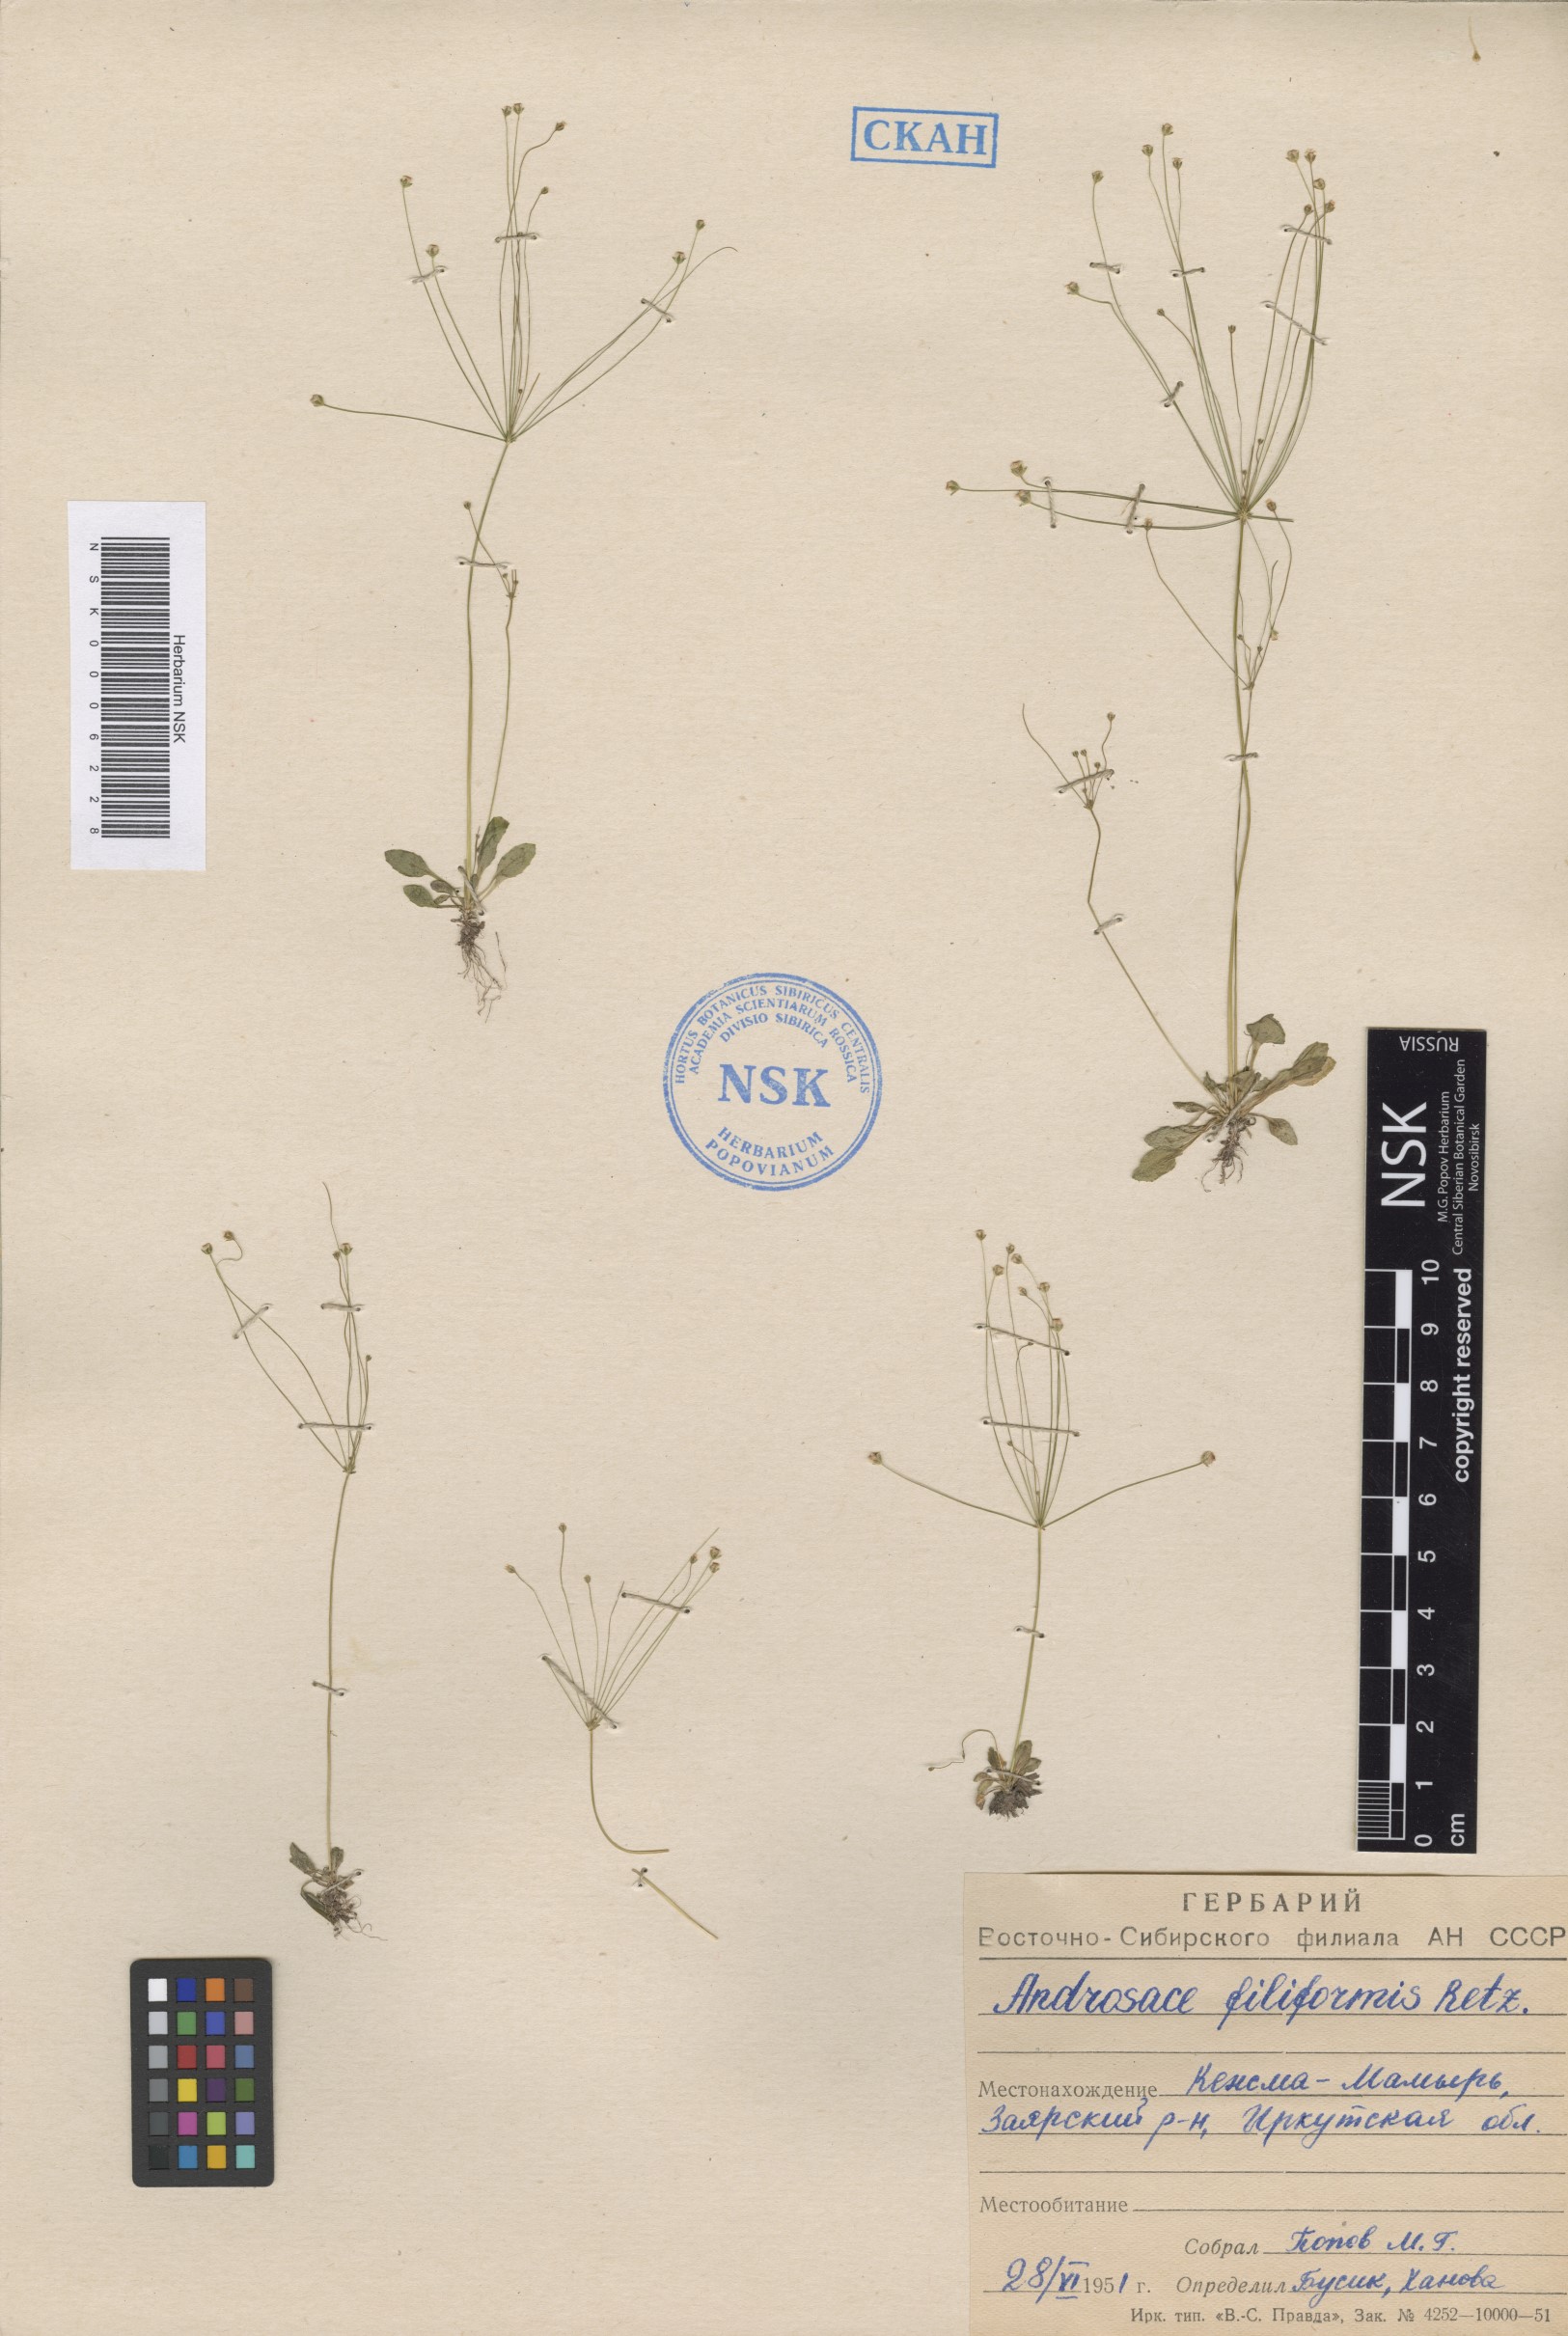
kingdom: Plantae
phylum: Tracheophyta
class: Magnoliopsida
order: Ericales
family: Primulaceae
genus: Androsace
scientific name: Androsace filiformis
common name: Filiform rock jasmine
